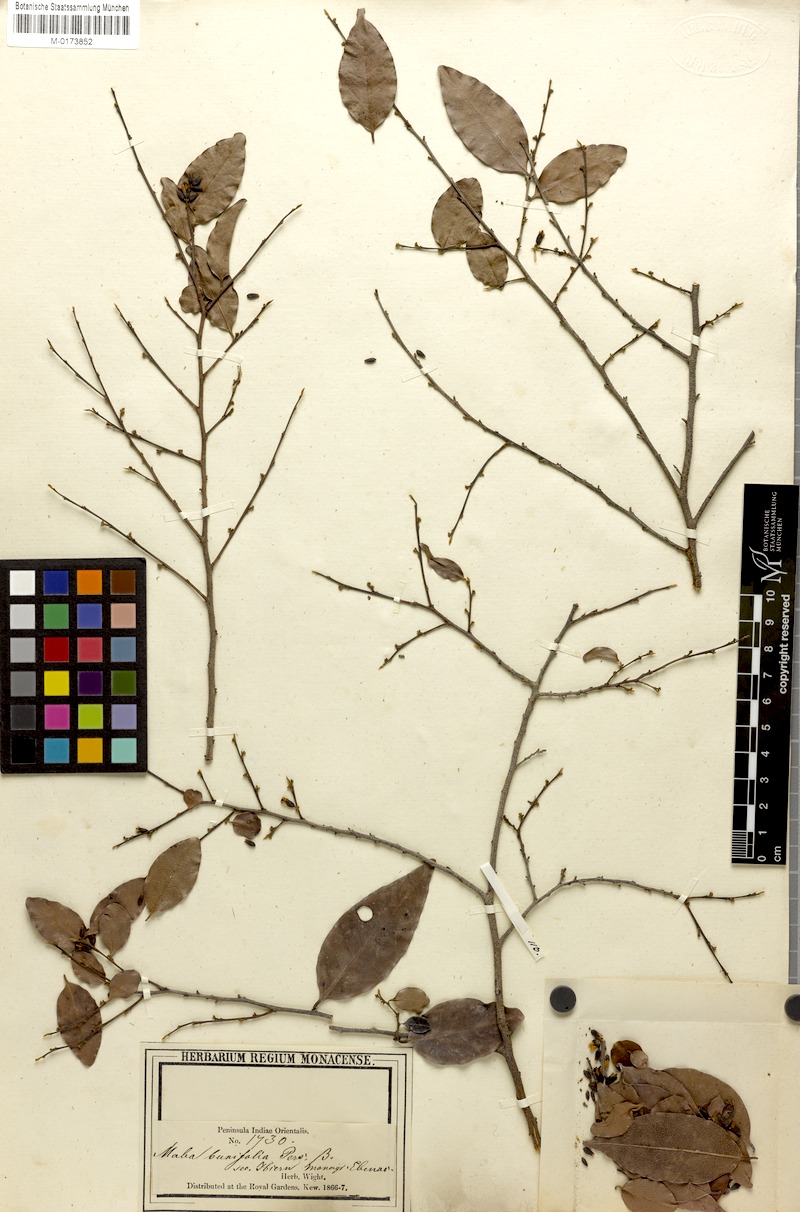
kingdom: Plantae
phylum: Tracheophyta
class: Magnoliopsida
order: Ericales
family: Ebenaceae
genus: Diospyros
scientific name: Diospyros ferrea
